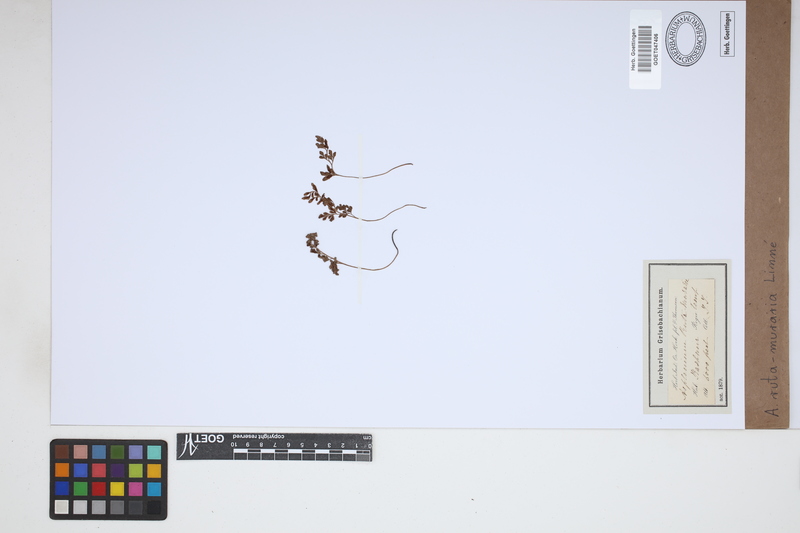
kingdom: Plantae
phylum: Tracheophyta
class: Polypodiopsida
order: Polypodiales
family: Aspleniaceae
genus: Asplenium
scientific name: Asplenium ruta-muraria
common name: Wall-rue
